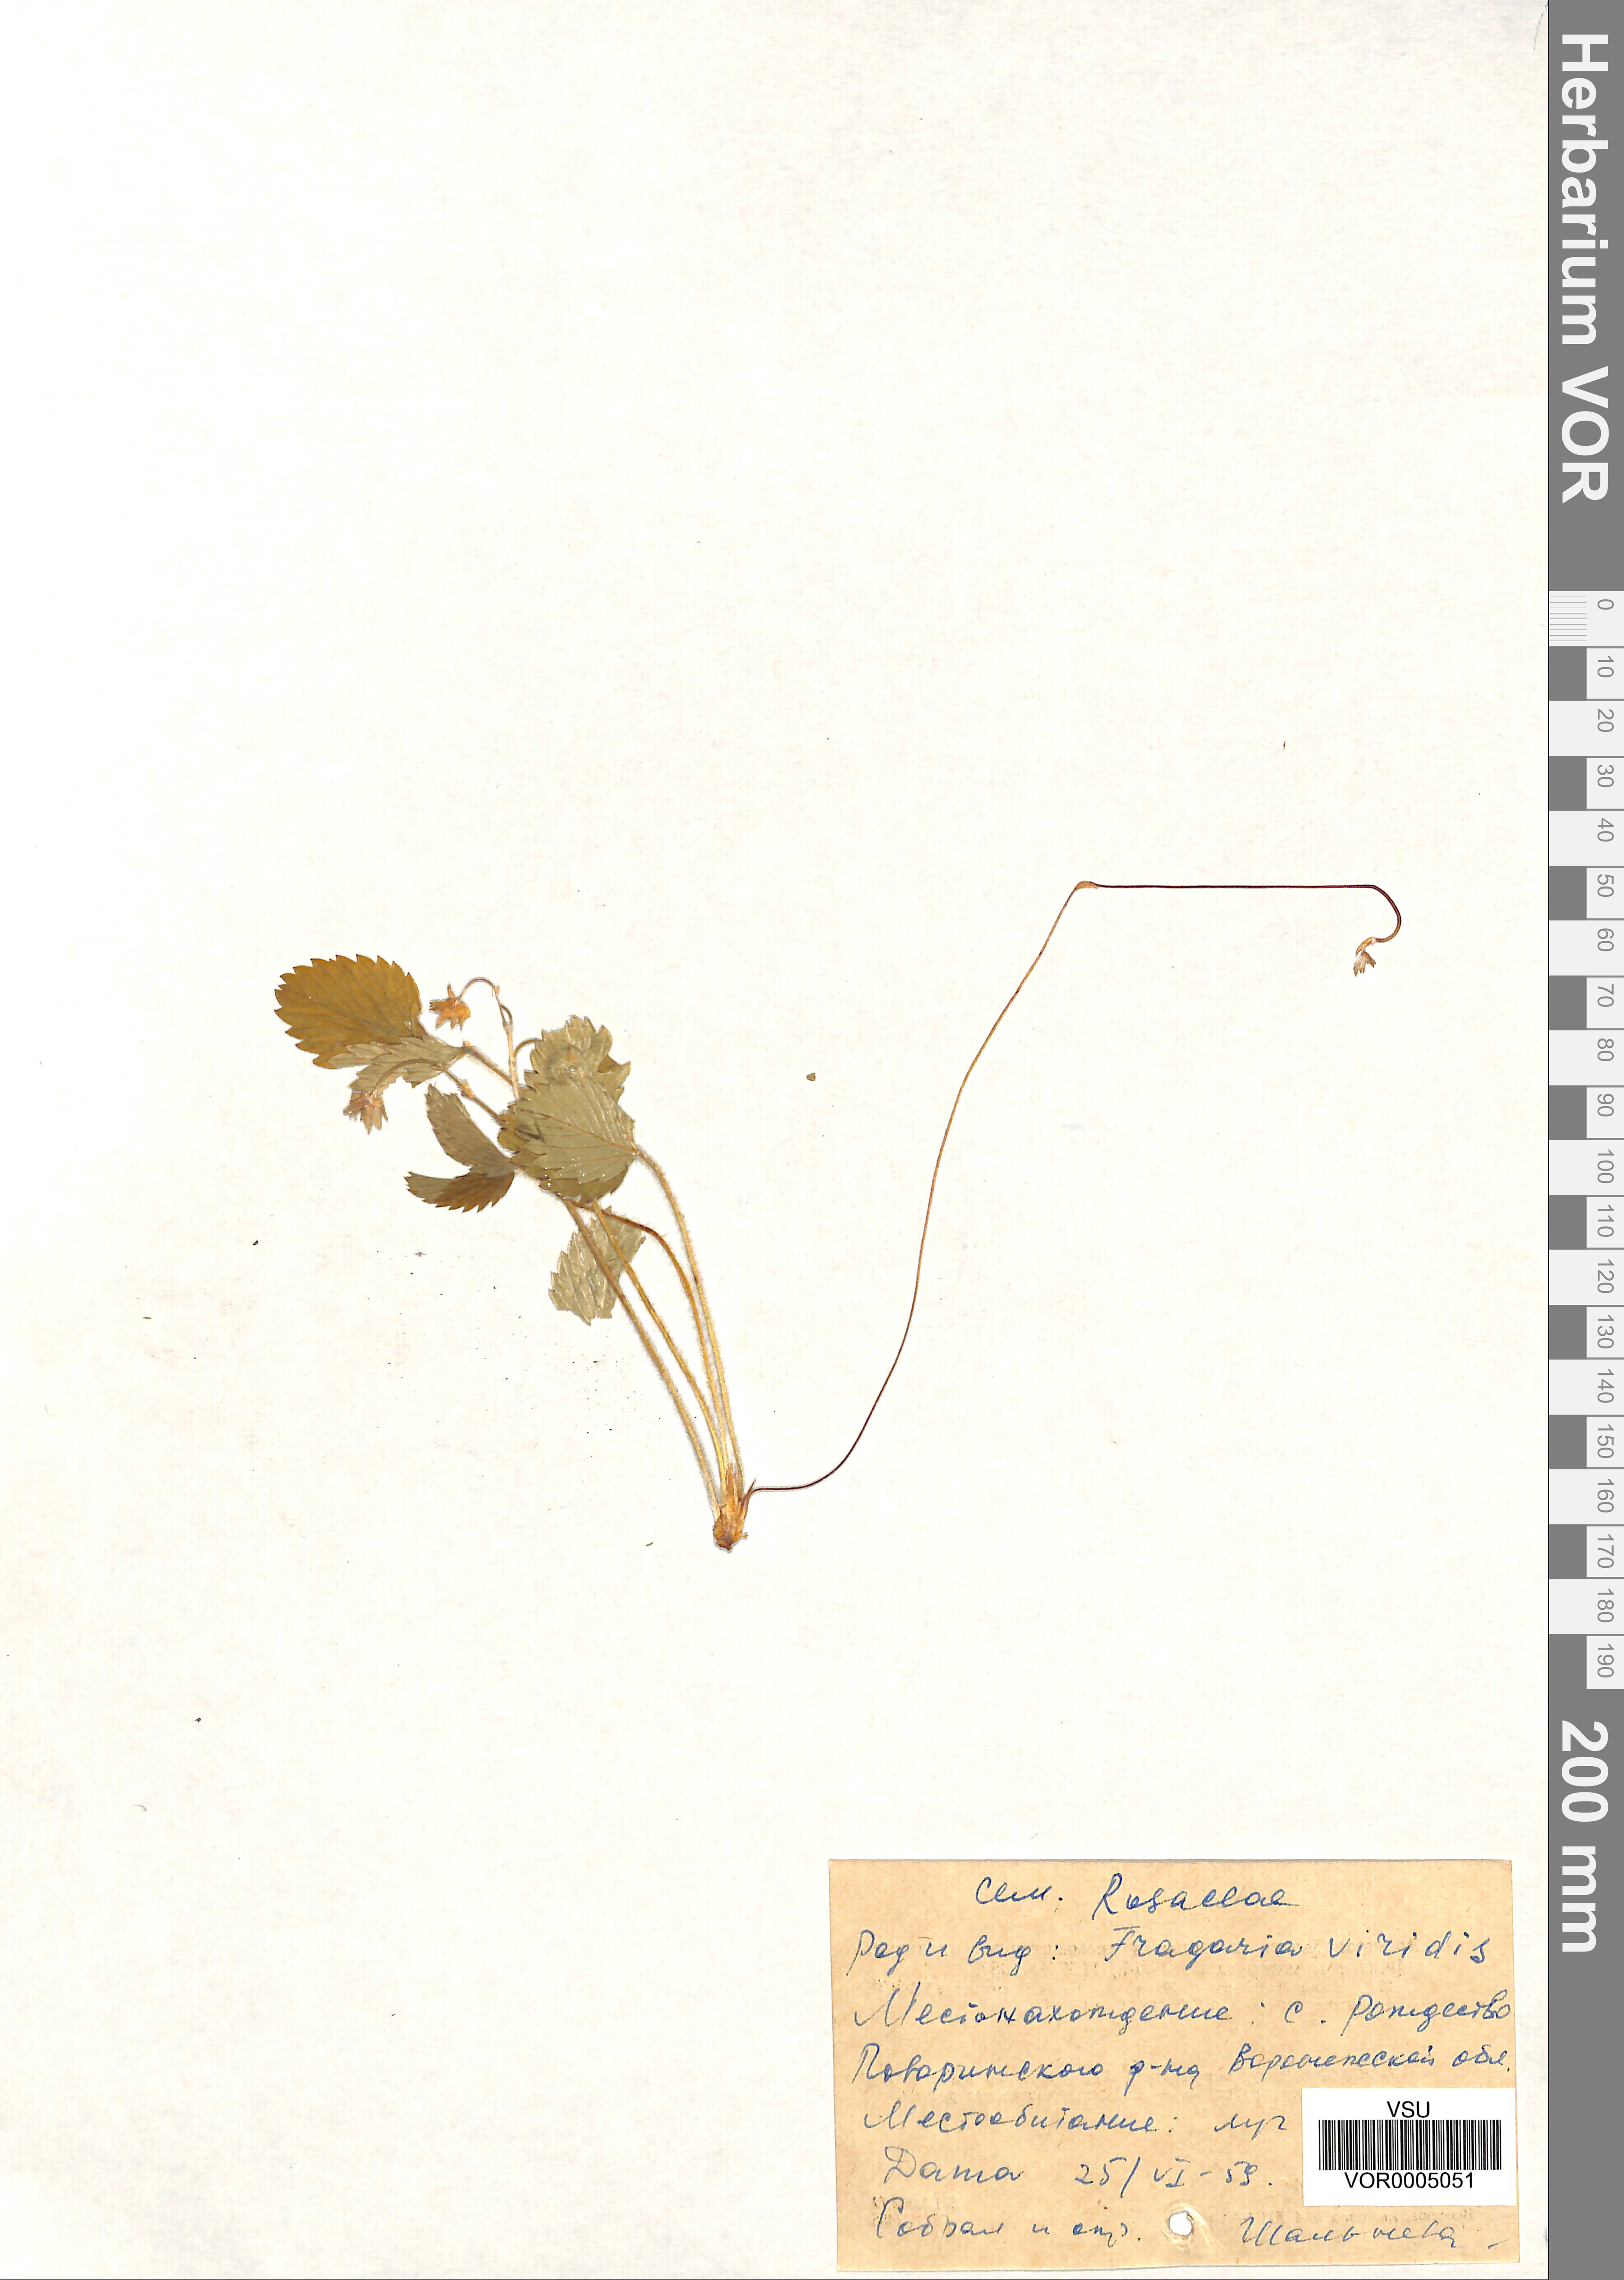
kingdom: Plantae
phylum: Tracheophyta
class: Magnoliopsida
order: Rosales
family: Rosaceae
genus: Fragaria
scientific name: Fragaria viridis
